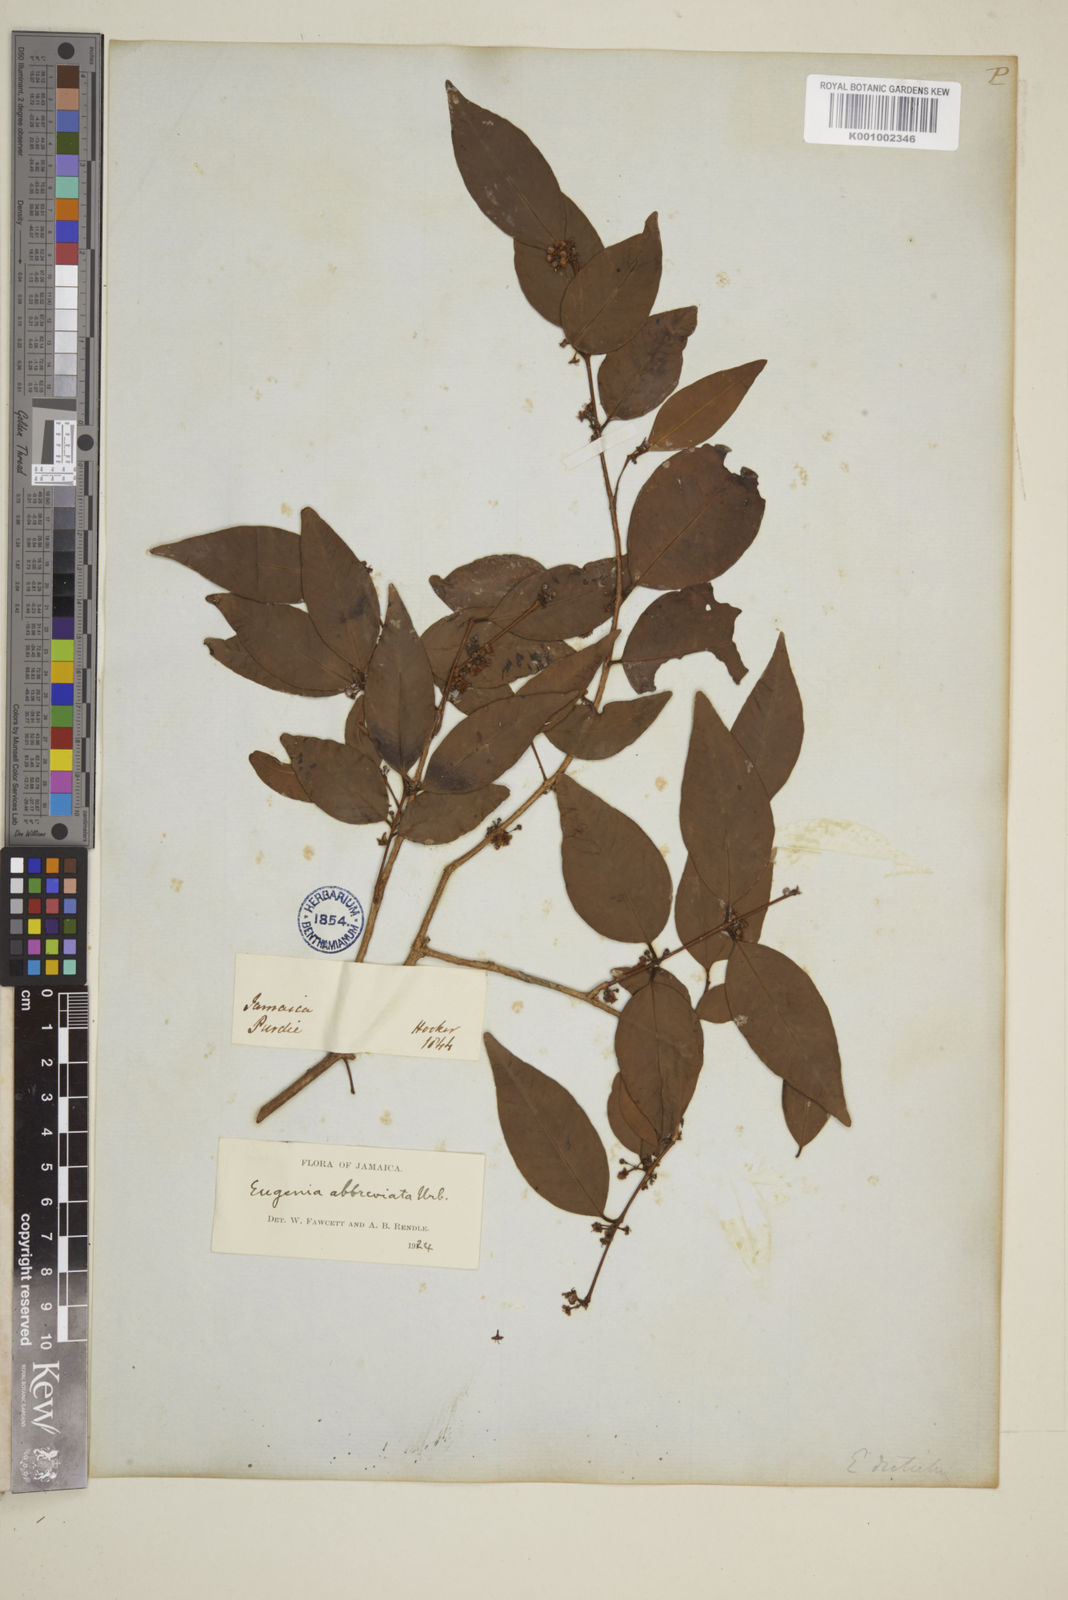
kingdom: Plantae
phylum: Tracheophyta
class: Magnoliopsida
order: Myrtales
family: Myrtaceae
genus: Eugenia
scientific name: Eugenia abbreviata
